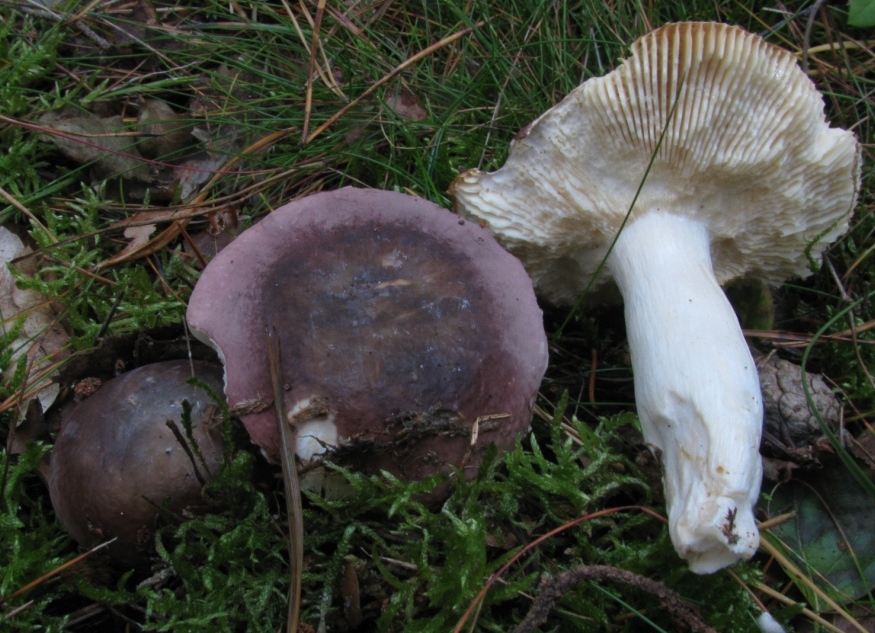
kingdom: Fungi
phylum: Basidiomycota
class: Agaricomycetes
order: Russulales
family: Russulaceae
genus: Russula
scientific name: Russula turci
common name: jod-skørhat
